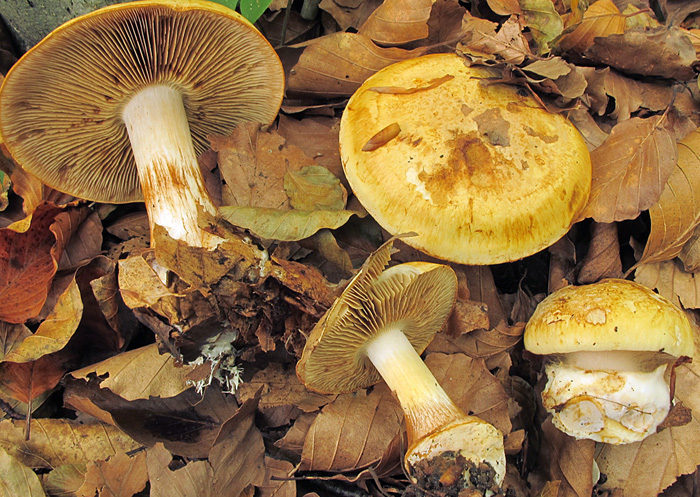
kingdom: Fungi
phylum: Basidiomycota
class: Agaricomycetes
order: Agaricales
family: Cortinariaceae
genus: Calonarius
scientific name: Calonarius osmophorus
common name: duft-slørhat
